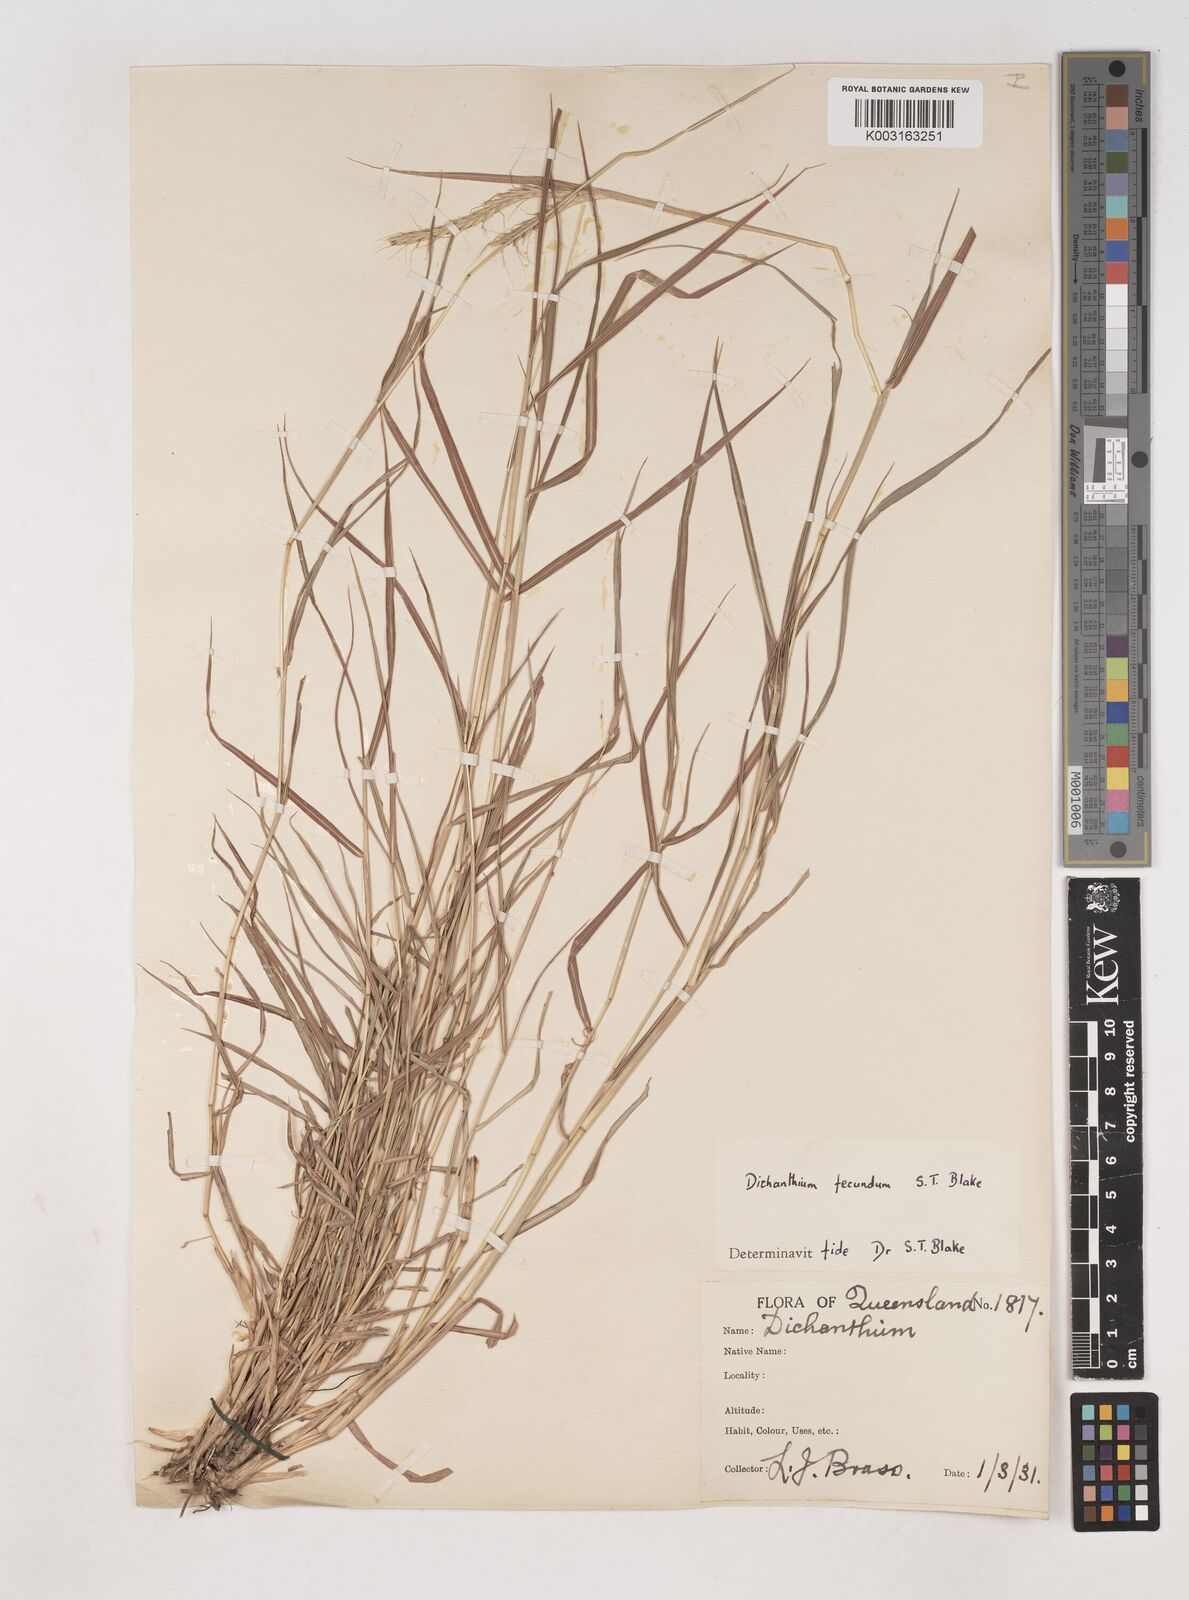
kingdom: Plantae
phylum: Tracheophyta
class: Liliopsida
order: Poales
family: Poaceae
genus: Dichanthium
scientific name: Dichanthium annulatum
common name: Kleberg's bluestem
